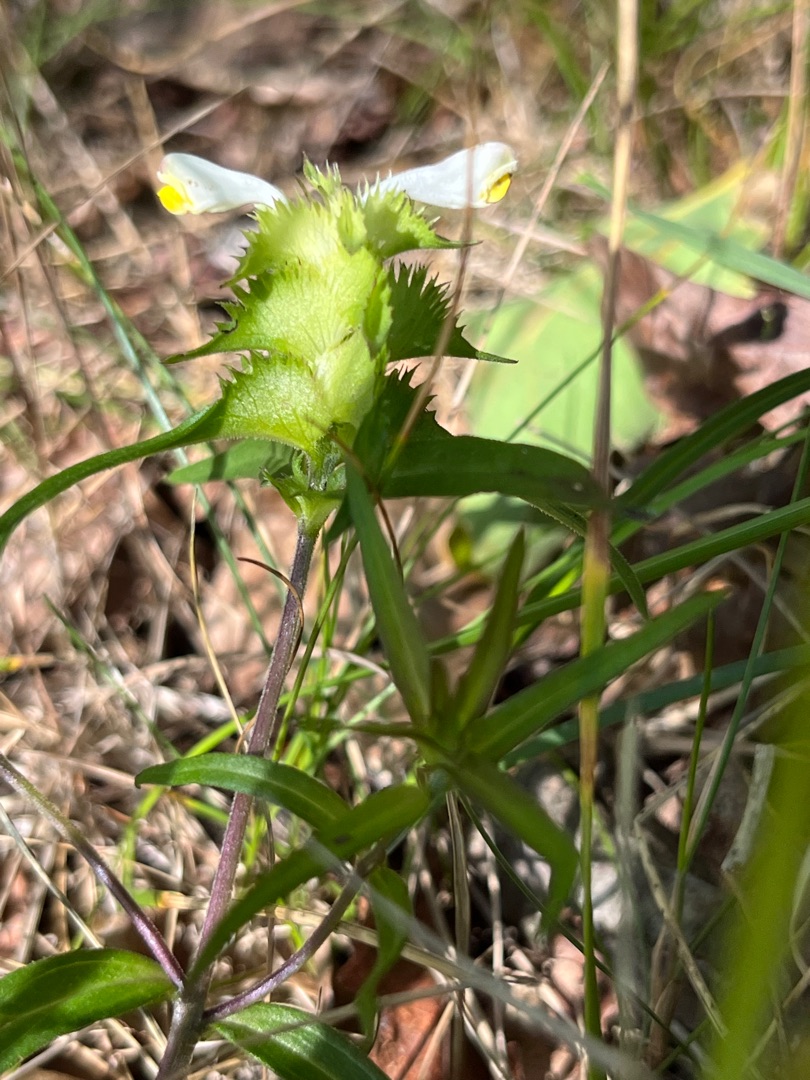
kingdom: Plantae
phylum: Tracheophyta
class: Magnoliopsida
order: Lamiales
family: Orobanchaceae
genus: Melampyrum
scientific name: Melampyrum cristatum
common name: Kantet kohvede
